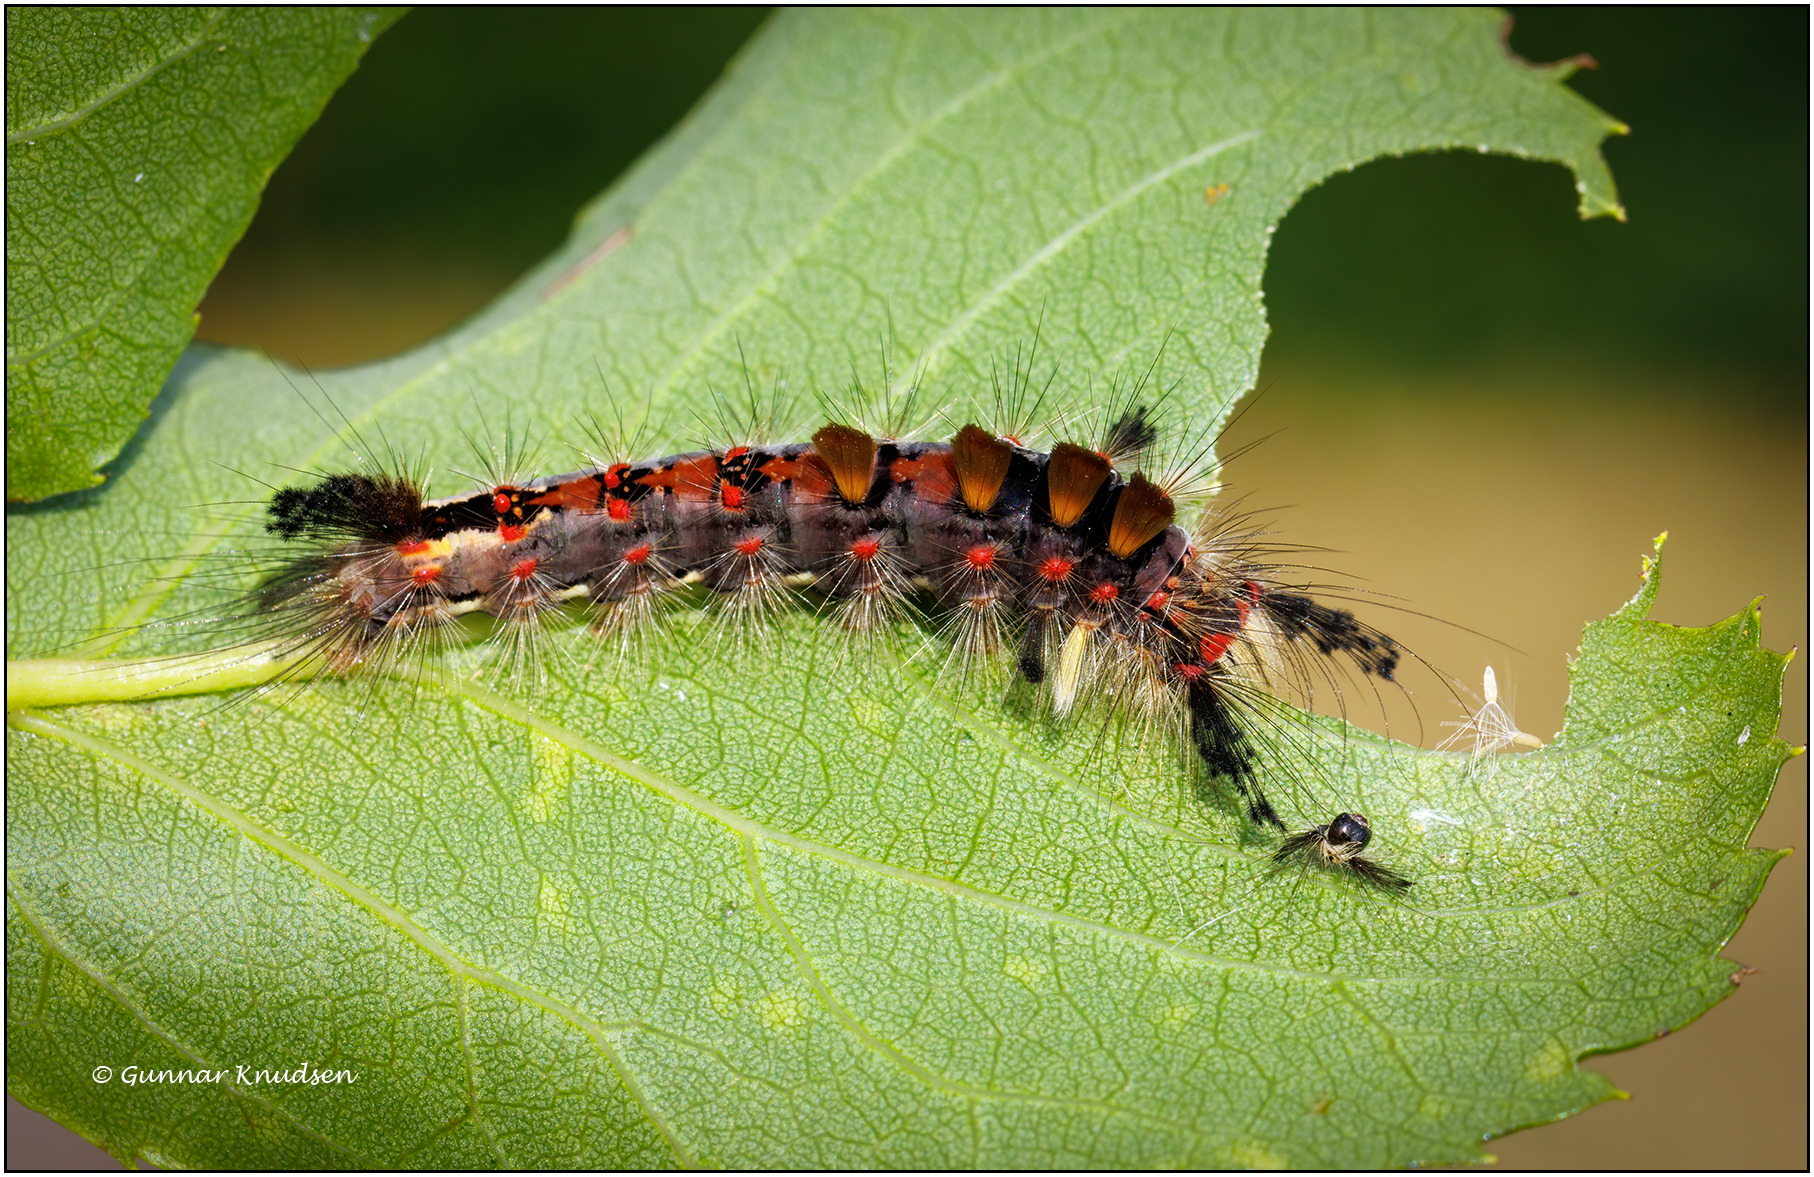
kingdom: Animalia
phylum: Arthropoda
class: Insecta
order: Lepidoptera
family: Erebidae
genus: Orgyia
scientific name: Orgyia antiqua
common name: Lille penselspinder
